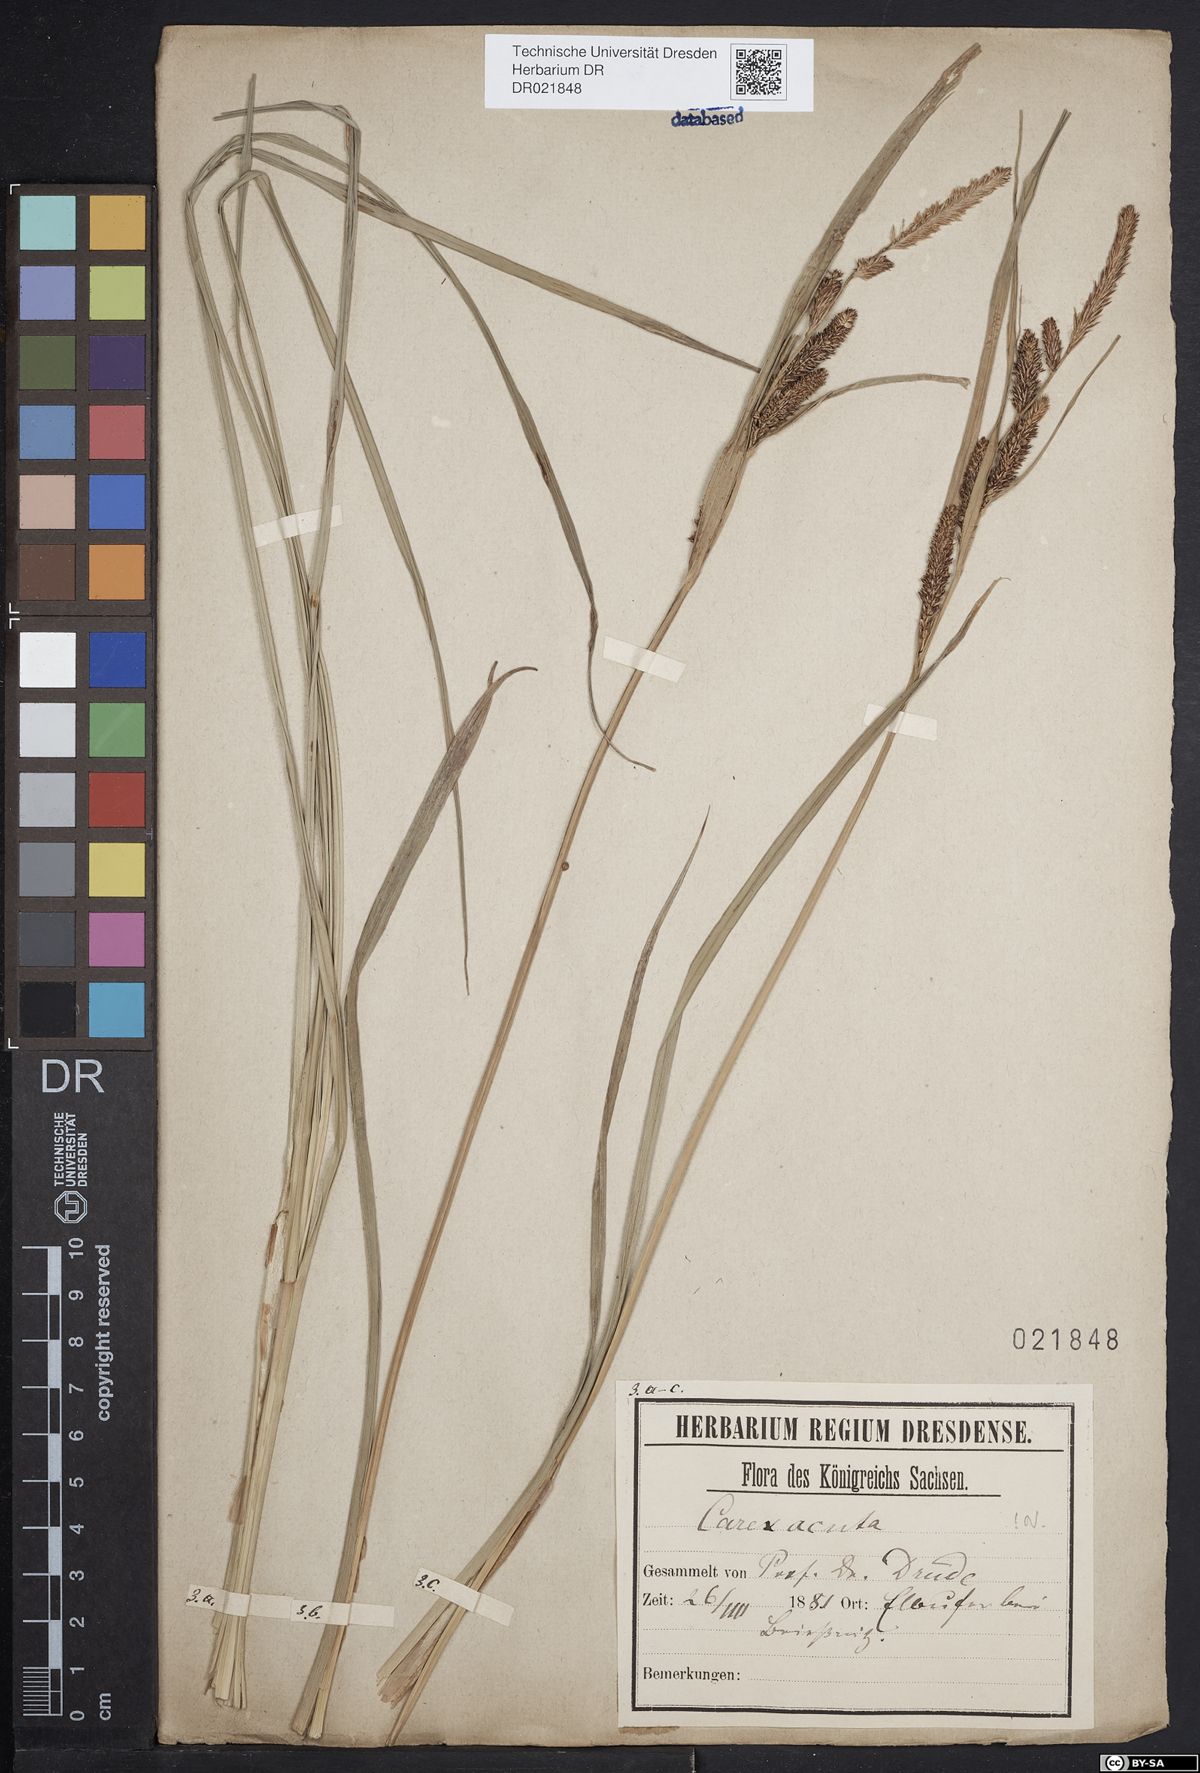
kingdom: Plantae
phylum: Tracheophyta
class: Liliopsida
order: Poales
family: Cyperaceae
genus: Carex
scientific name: Carex acuta
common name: Slender tufted-sedge
